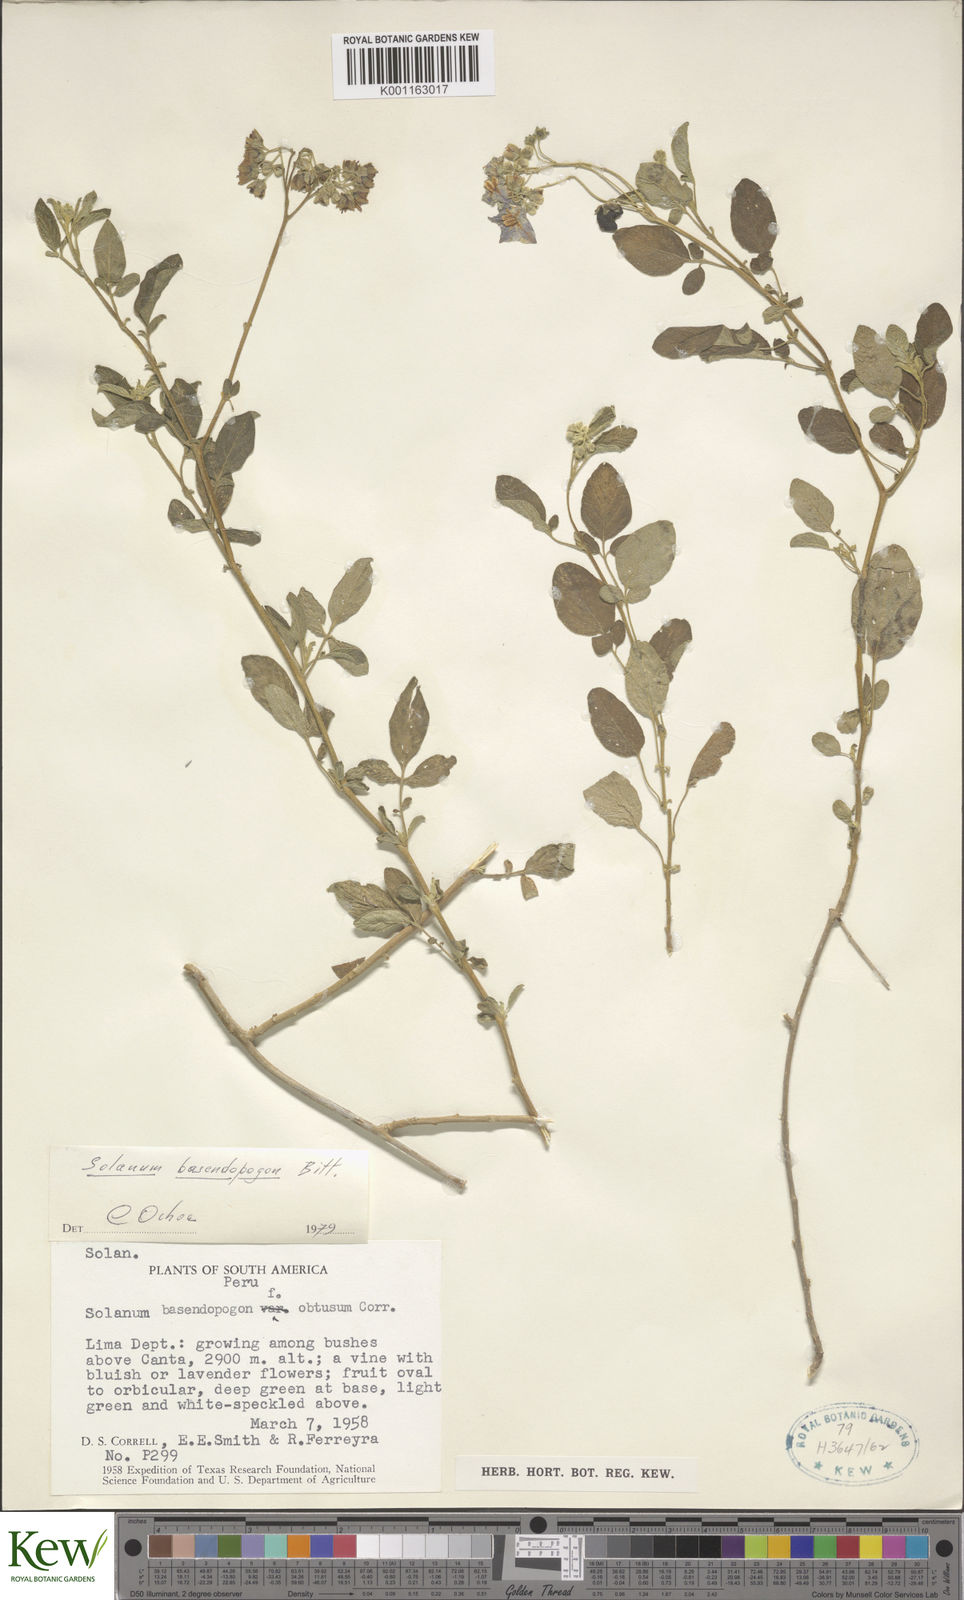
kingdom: Plantae
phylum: Tracheophyta
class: Magnoliopsida
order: Solanales
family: Solanaceae
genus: Solanum
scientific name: Solanum basendopogon
